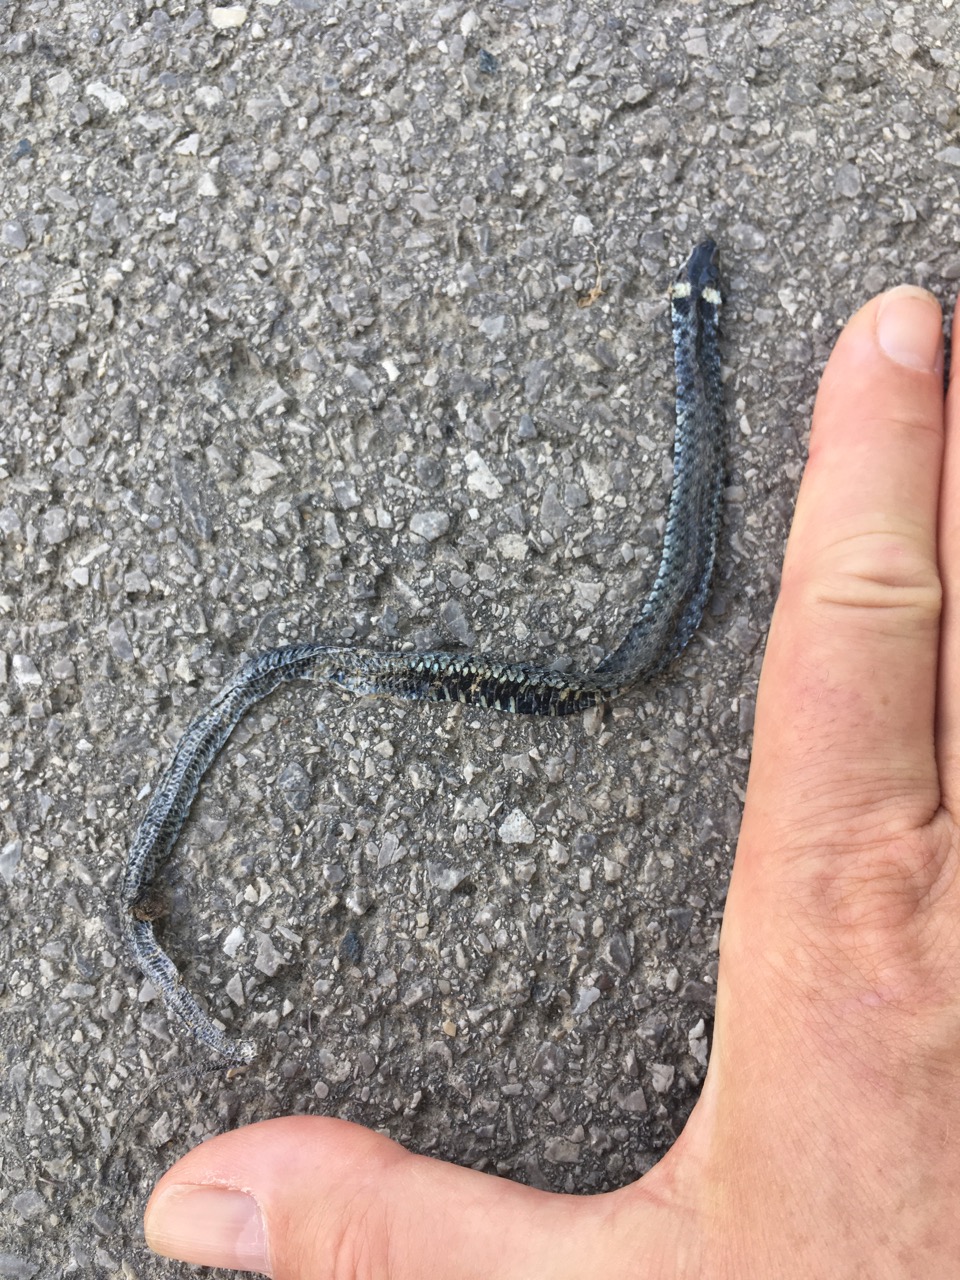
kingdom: Animalia
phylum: Chordata
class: Squamata
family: Colubridae
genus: Natrix
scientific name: Natrix natrix
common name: Grass snake
